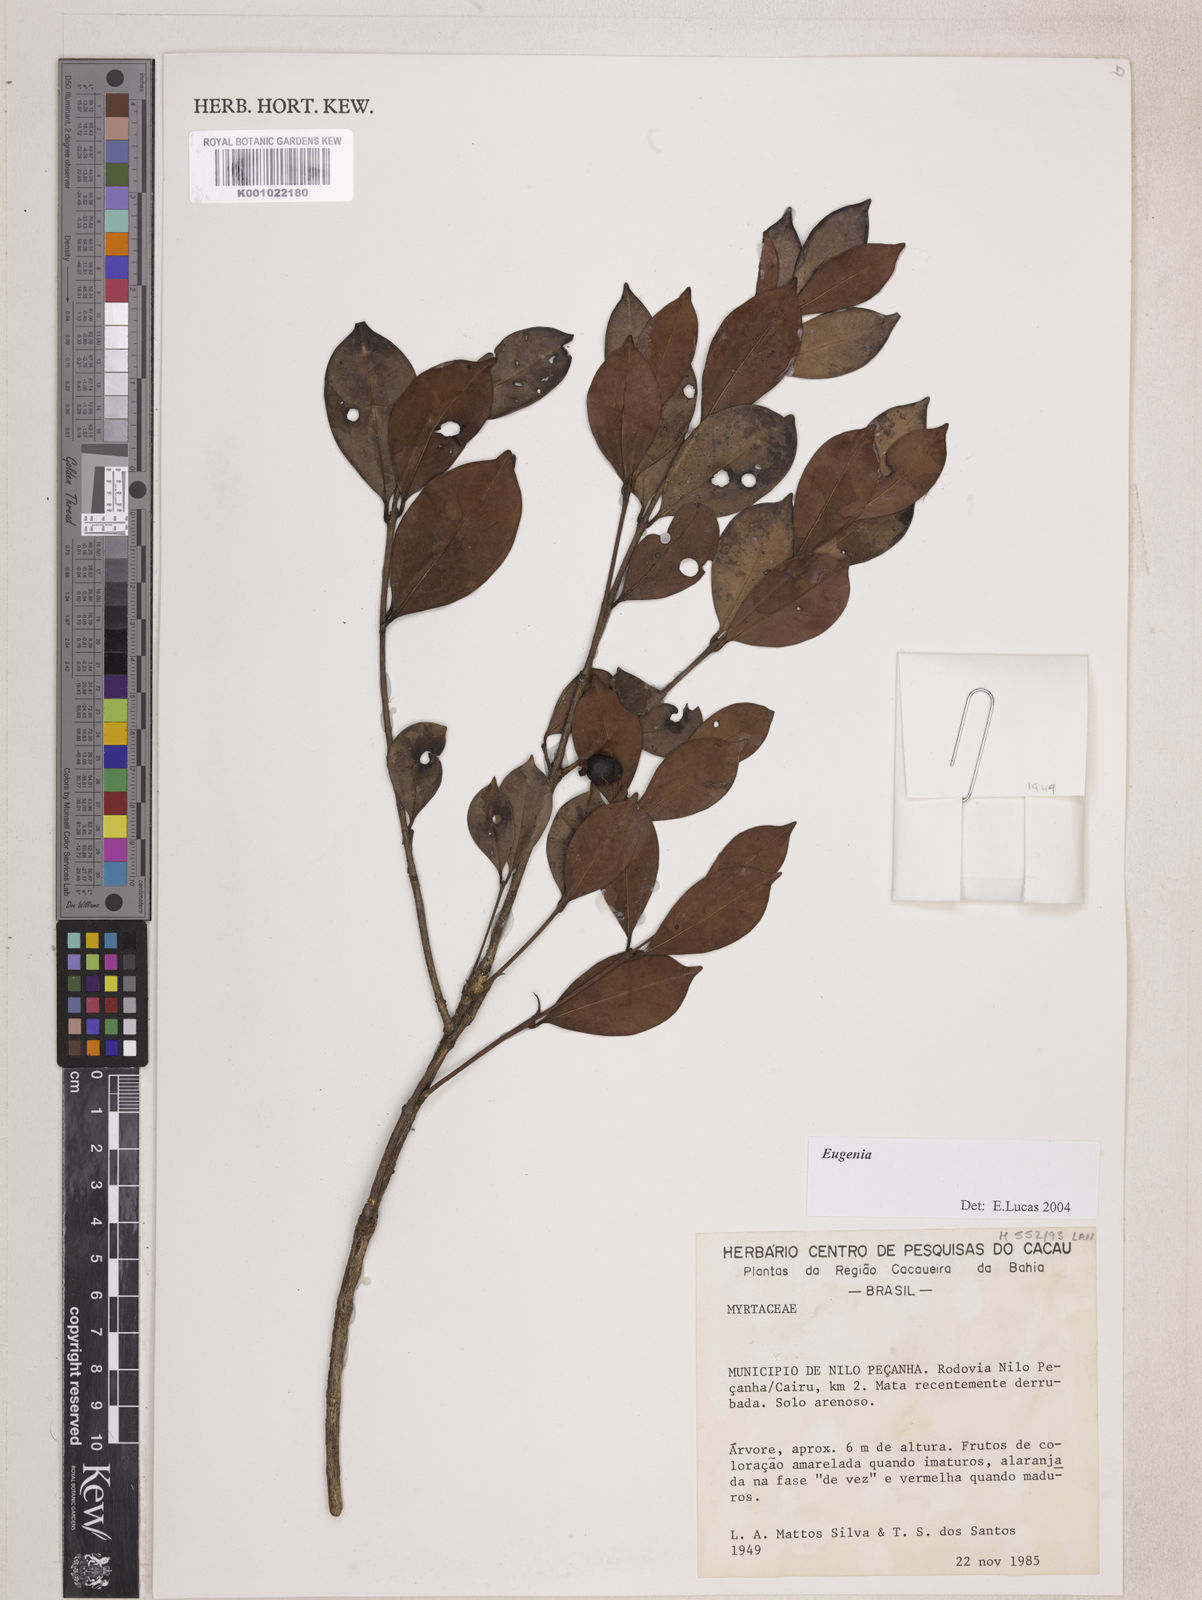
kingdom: Plantae
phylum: Tracheophyta
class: Magnoliopsida
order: Myrtales
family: Myrtaceae
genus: Eugenia
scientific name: Eugenia punicifolia
